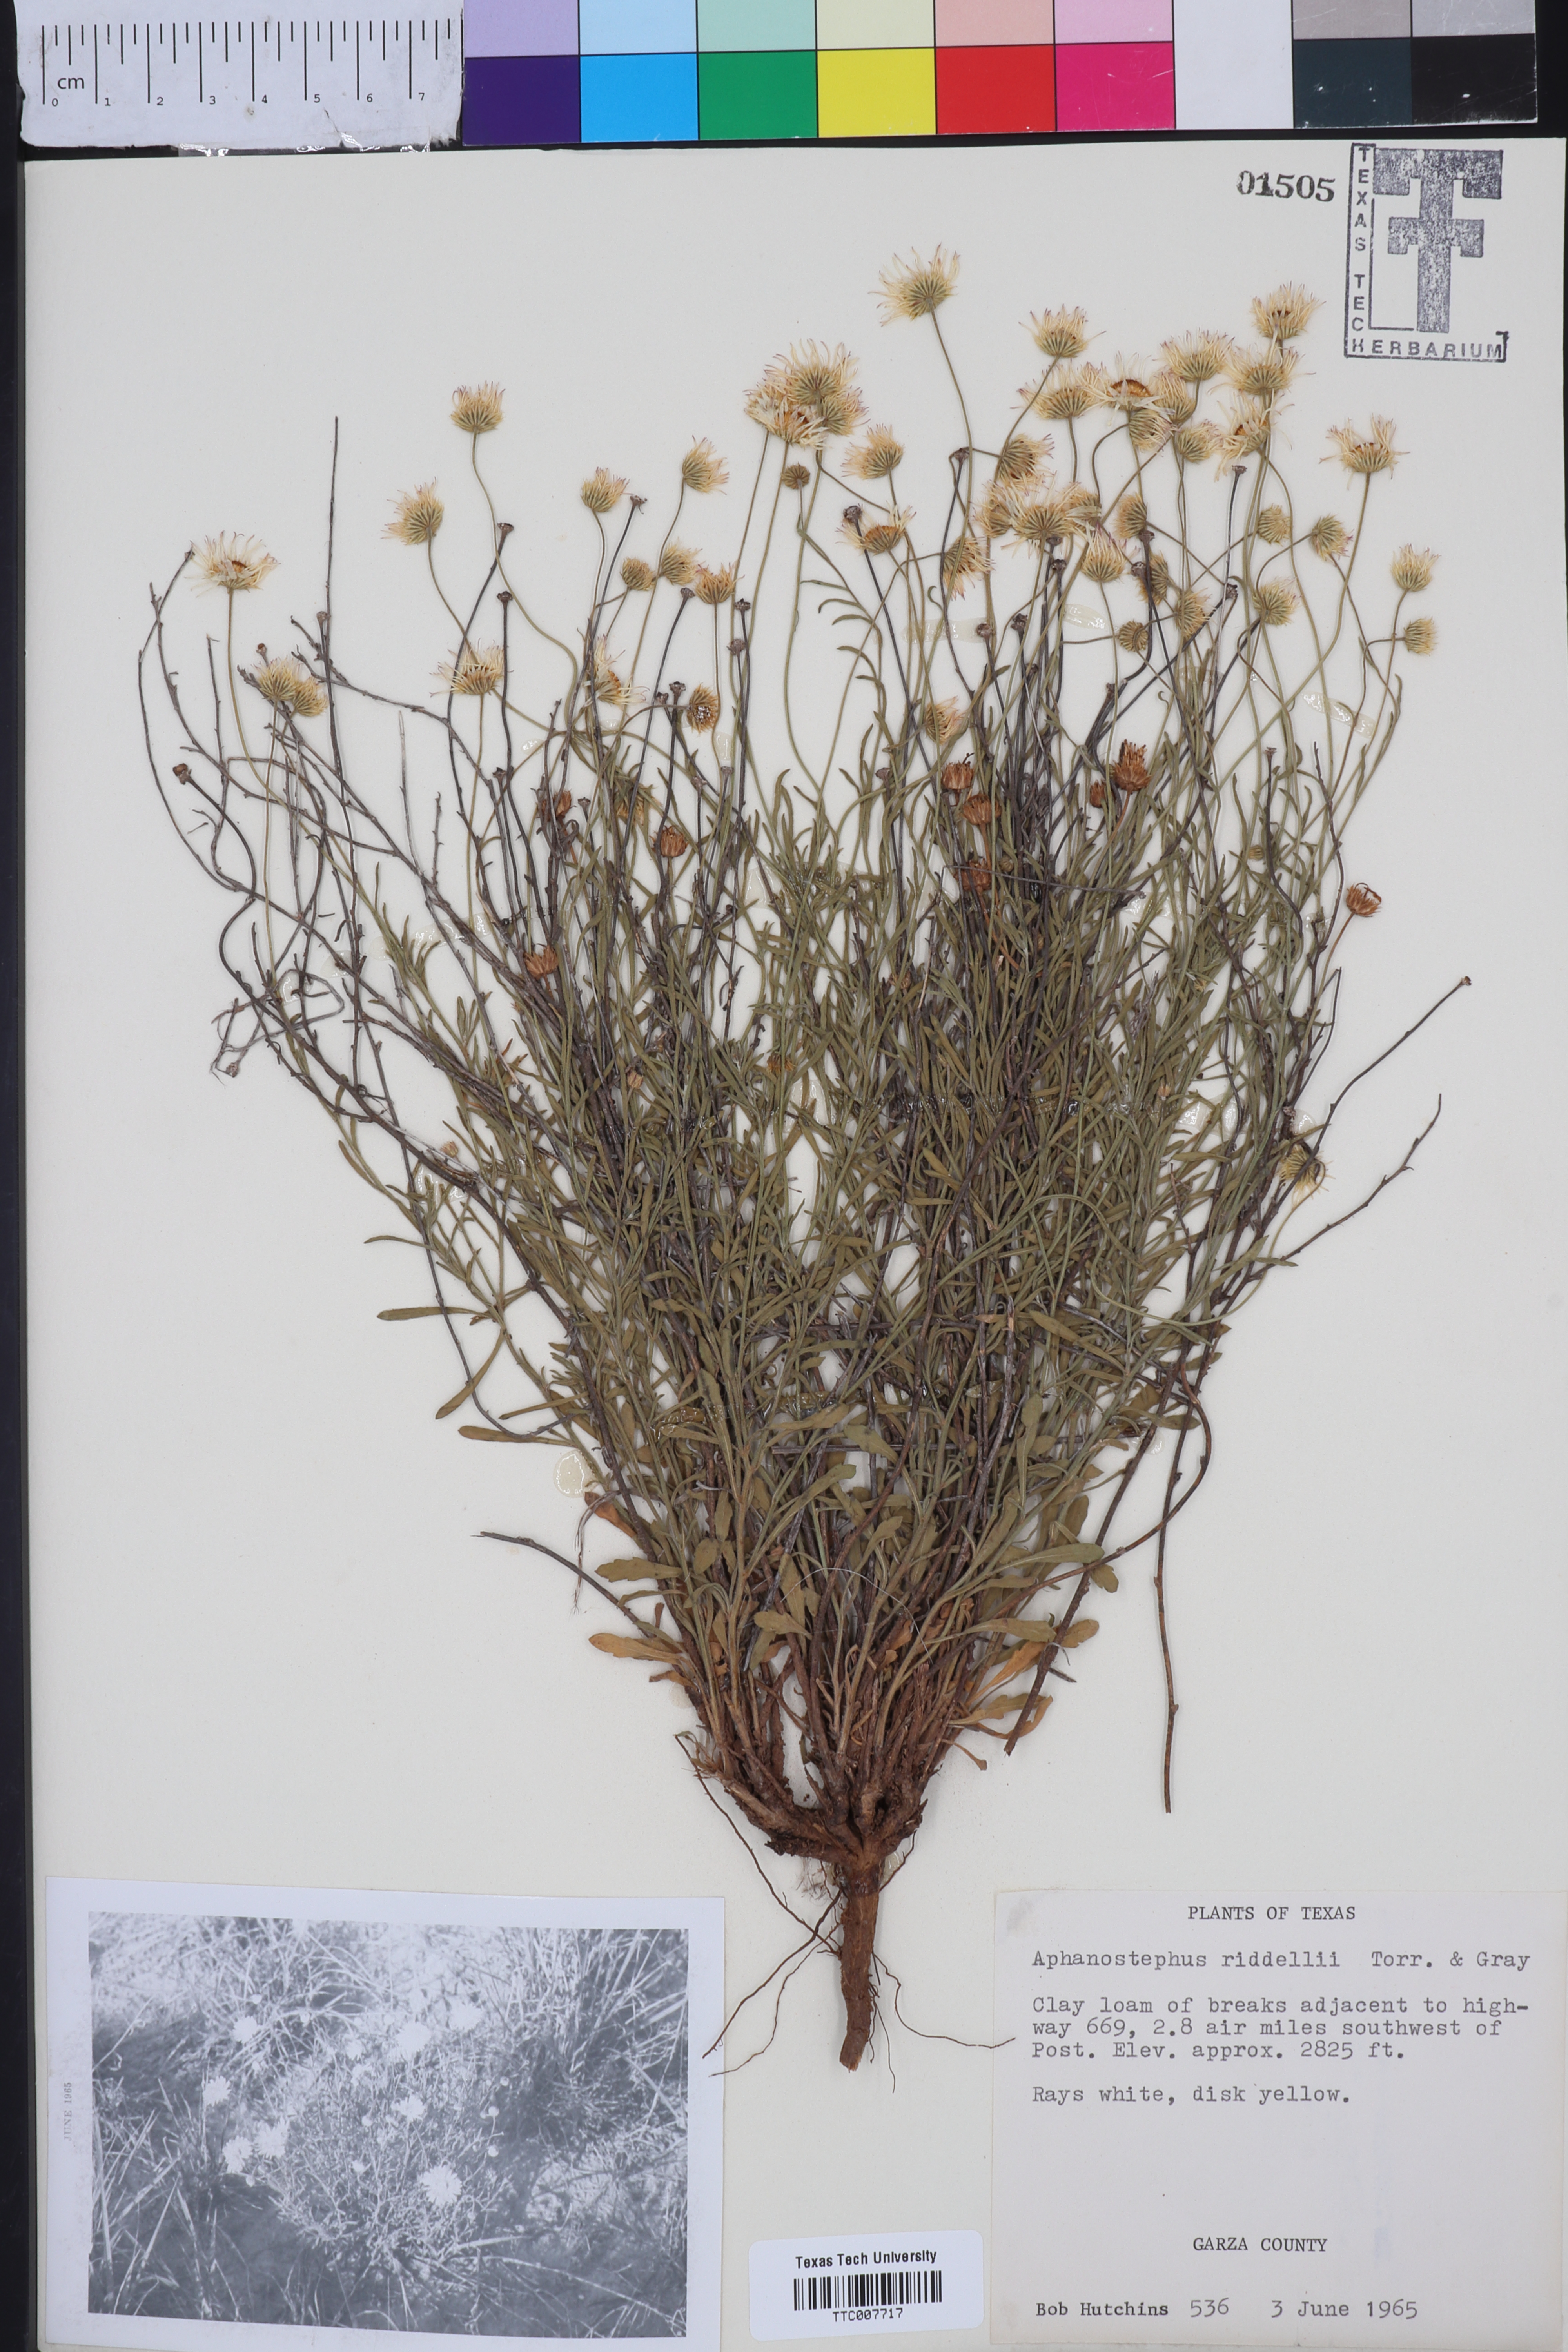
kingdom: Plantae
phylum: Tracheophyta
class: Magnoliopsida
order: Asterales
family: Asteraceae
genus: Aphanostephus
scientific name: Aphanostephus riddellii
